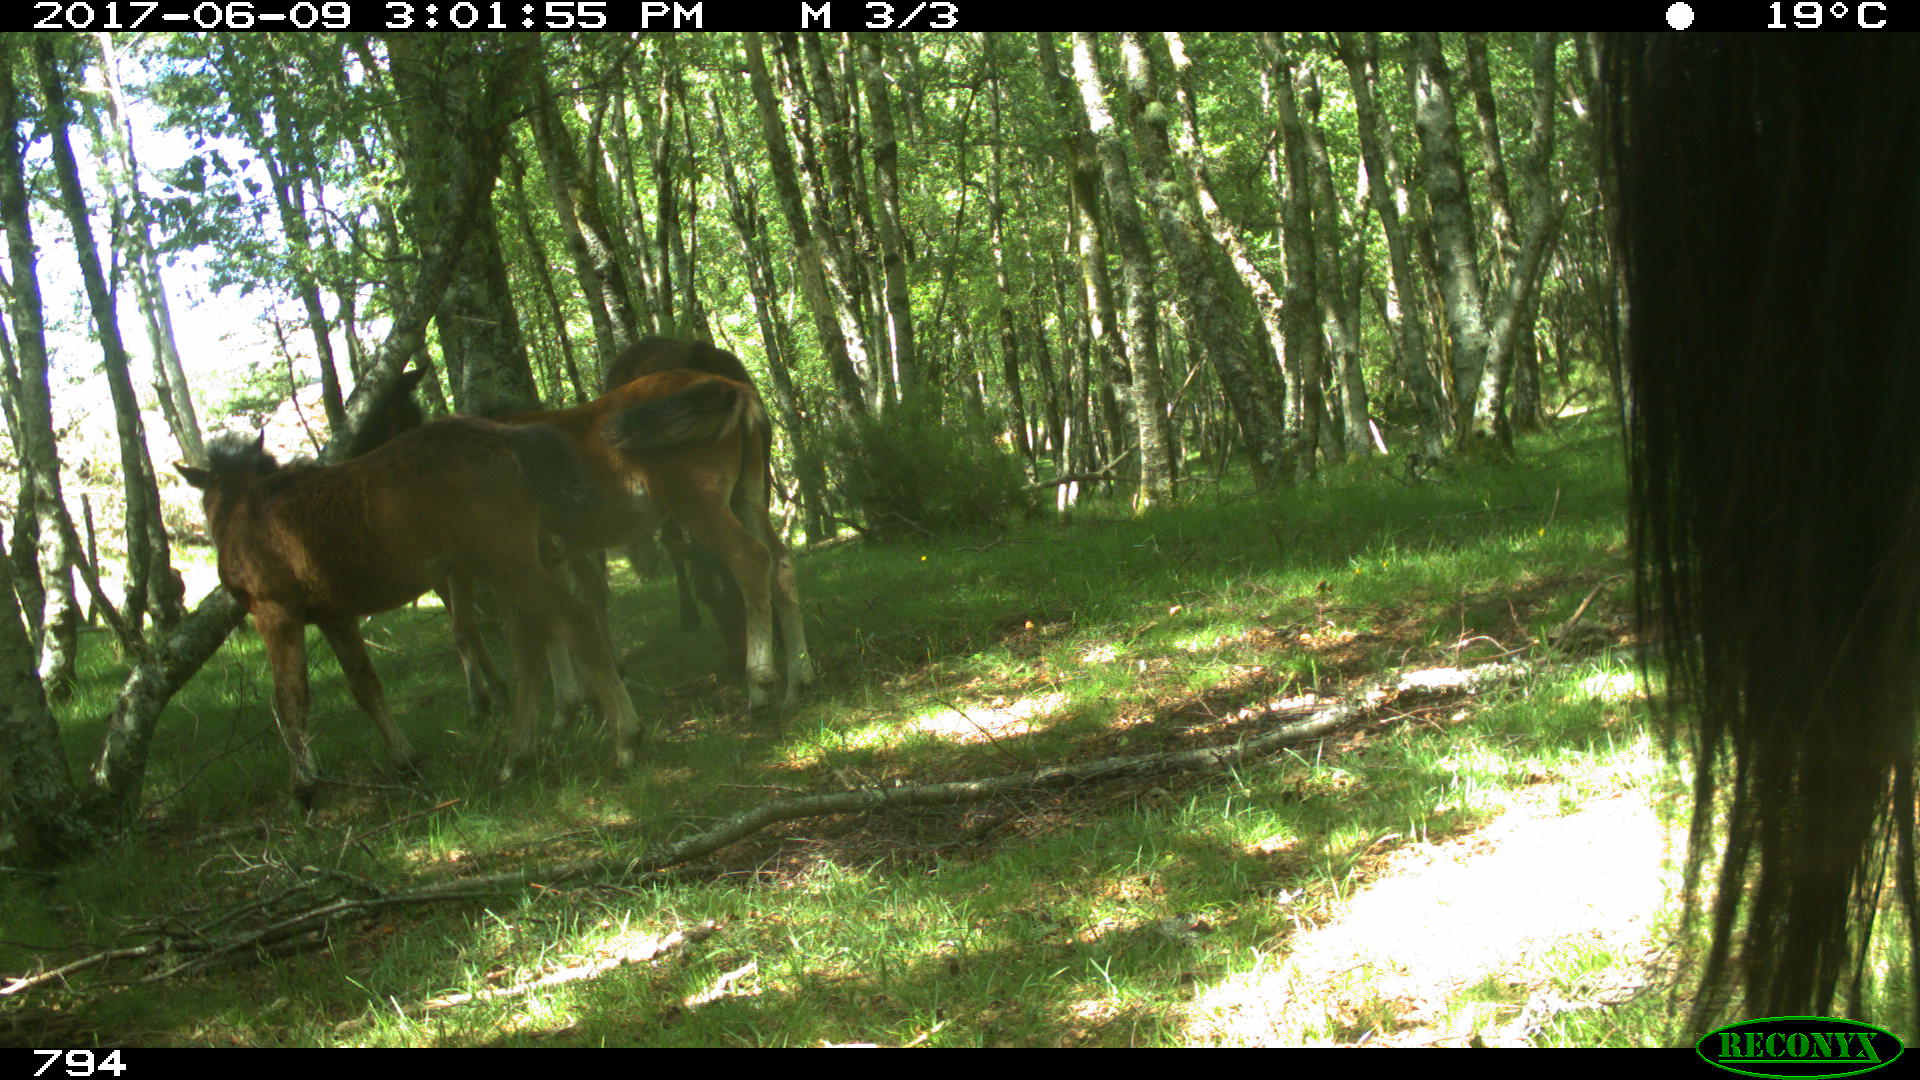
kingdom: Animalia
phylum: Chordata
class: Mammalia
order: Perissodactyla
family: Equidae
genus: Equus
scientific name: Equus caballus
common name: Horse
